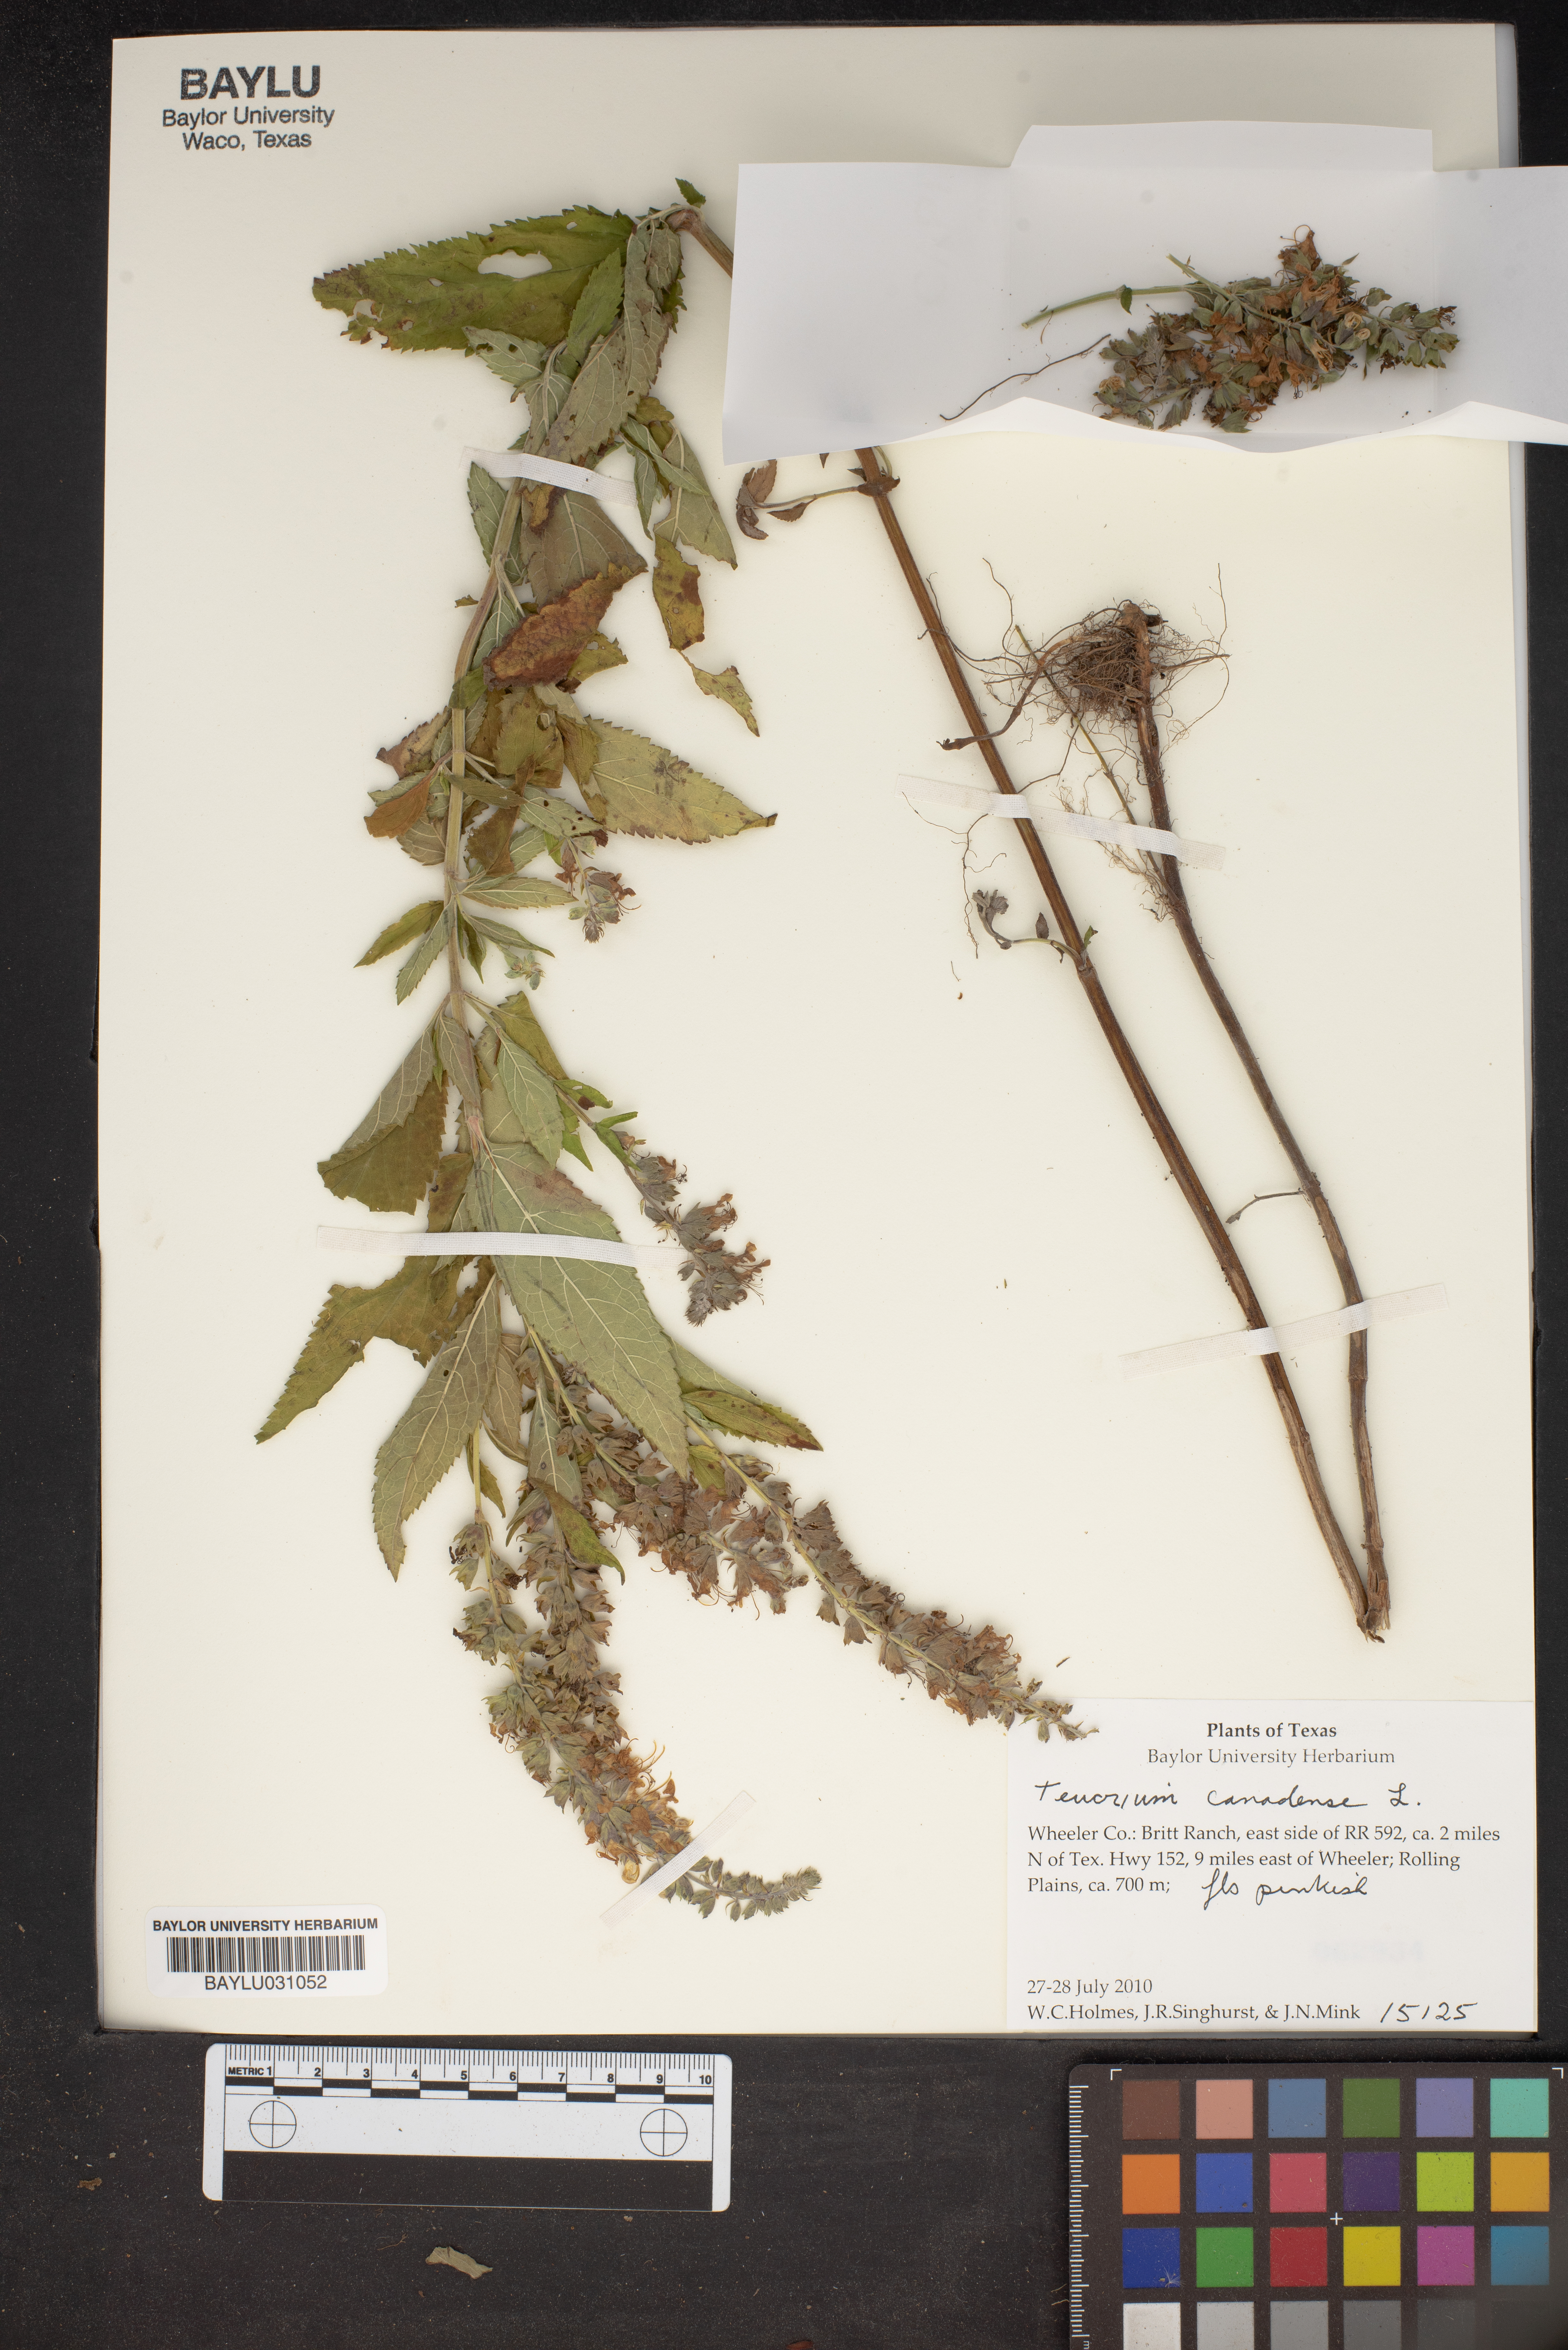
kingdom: Plantae
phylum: Tracheophyta
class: Magnoliopsida
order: Lamiales
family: Lamiaceae
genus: Teucrium
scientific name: Teucrium canadense
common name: American germander
